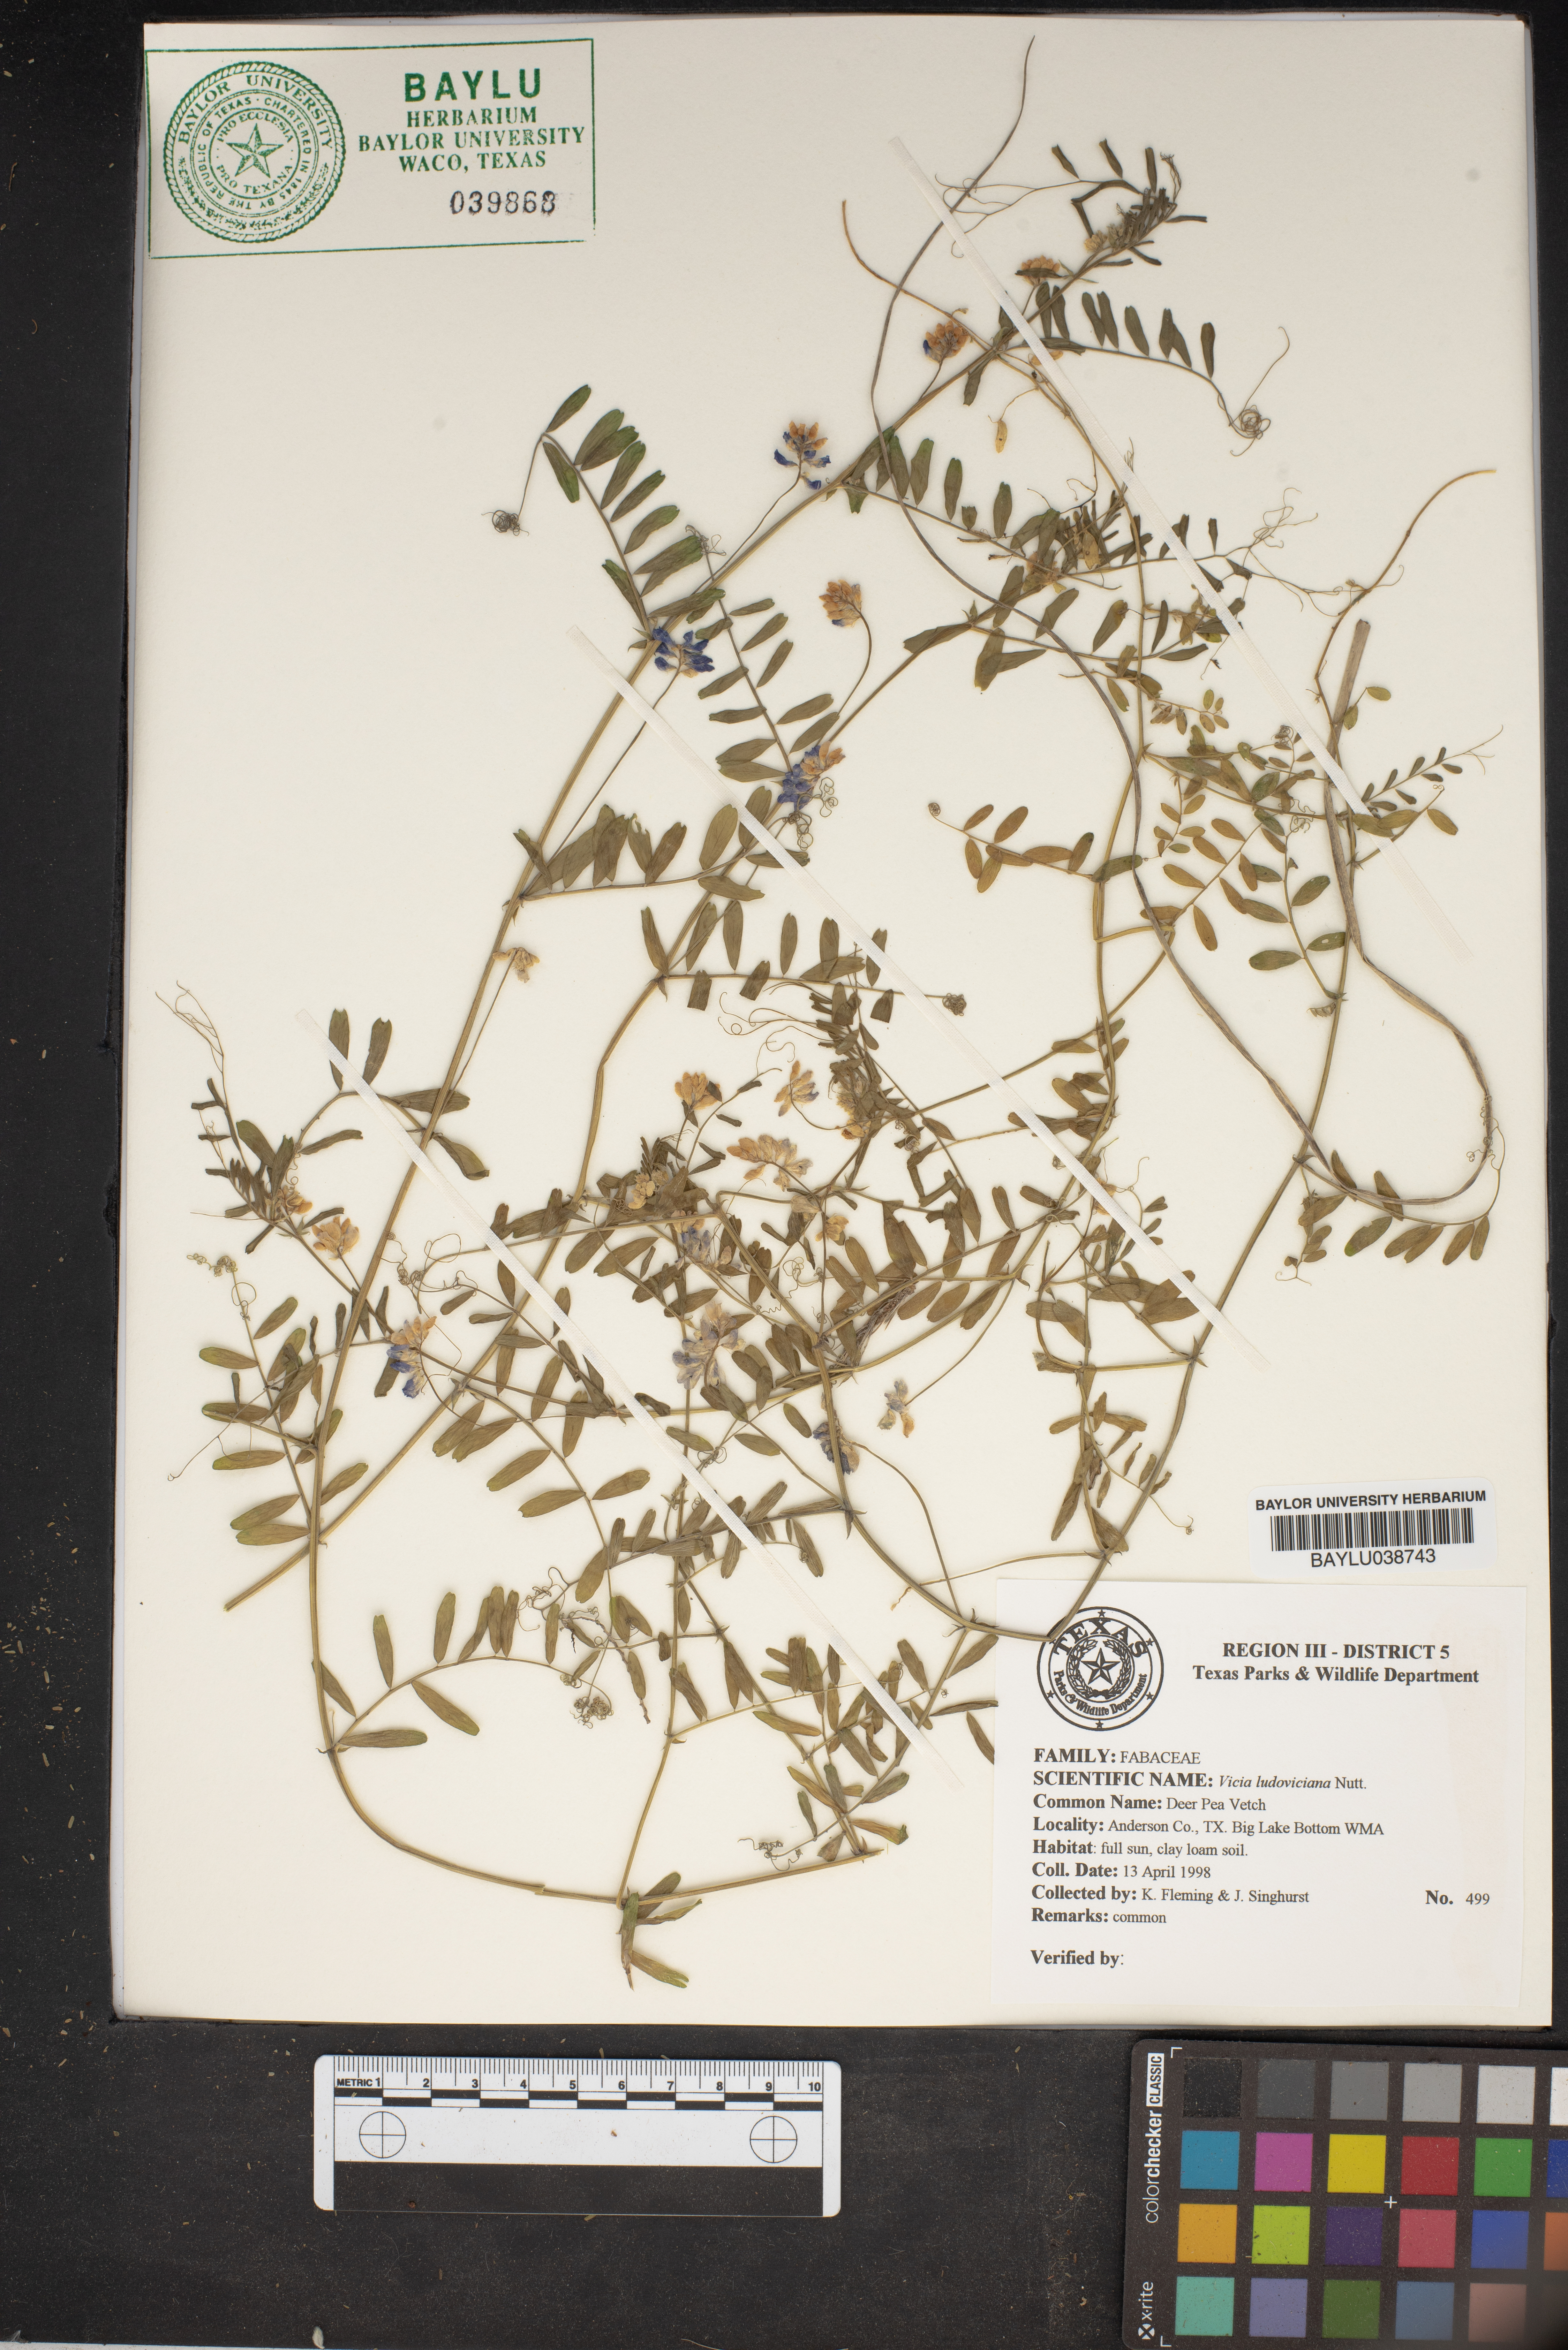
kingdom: Plantae
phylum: Tracheophyta
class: Magnoliopsida
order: Fabales
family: Fabaceae
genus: Vicia
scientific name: Vicia ludoviciana
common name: Louisiana vetch
